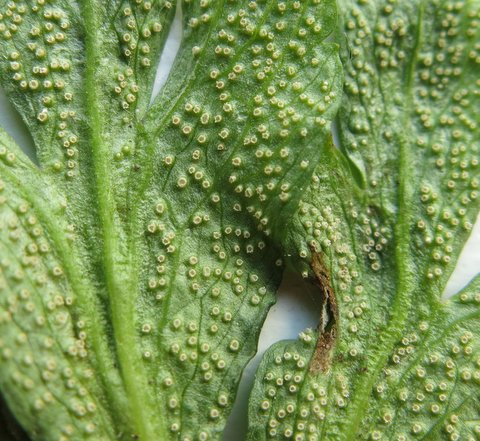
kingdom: Fungi
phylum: Basidiomycota
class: Pucciniomycetes
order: Pucciniales
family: Ochropsoraceae
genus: Ochropsora
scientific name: Ochropsora ariae
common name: anemone-okkerpletrust
